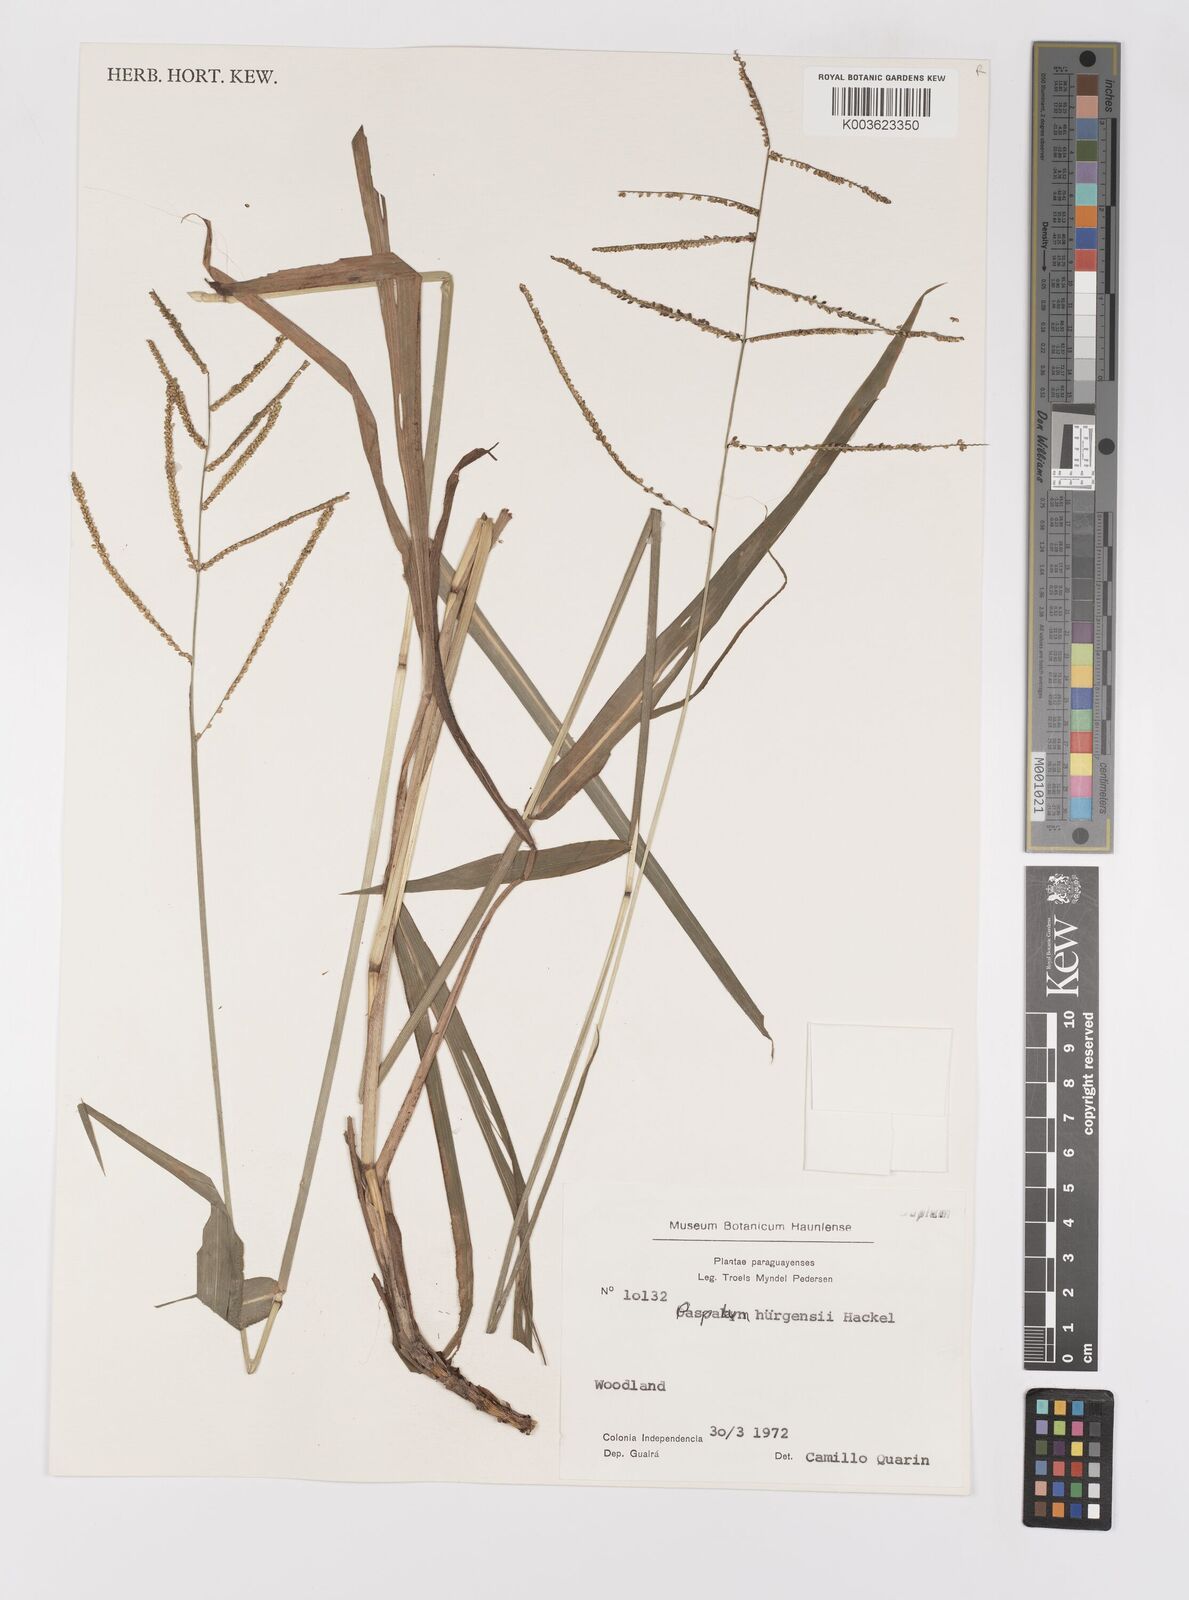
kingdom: Plantae
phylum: Tracheophyta
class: Liliopsida
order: Poales
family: Poaceae
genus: Paspalum
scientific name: Paspalum juergensii
